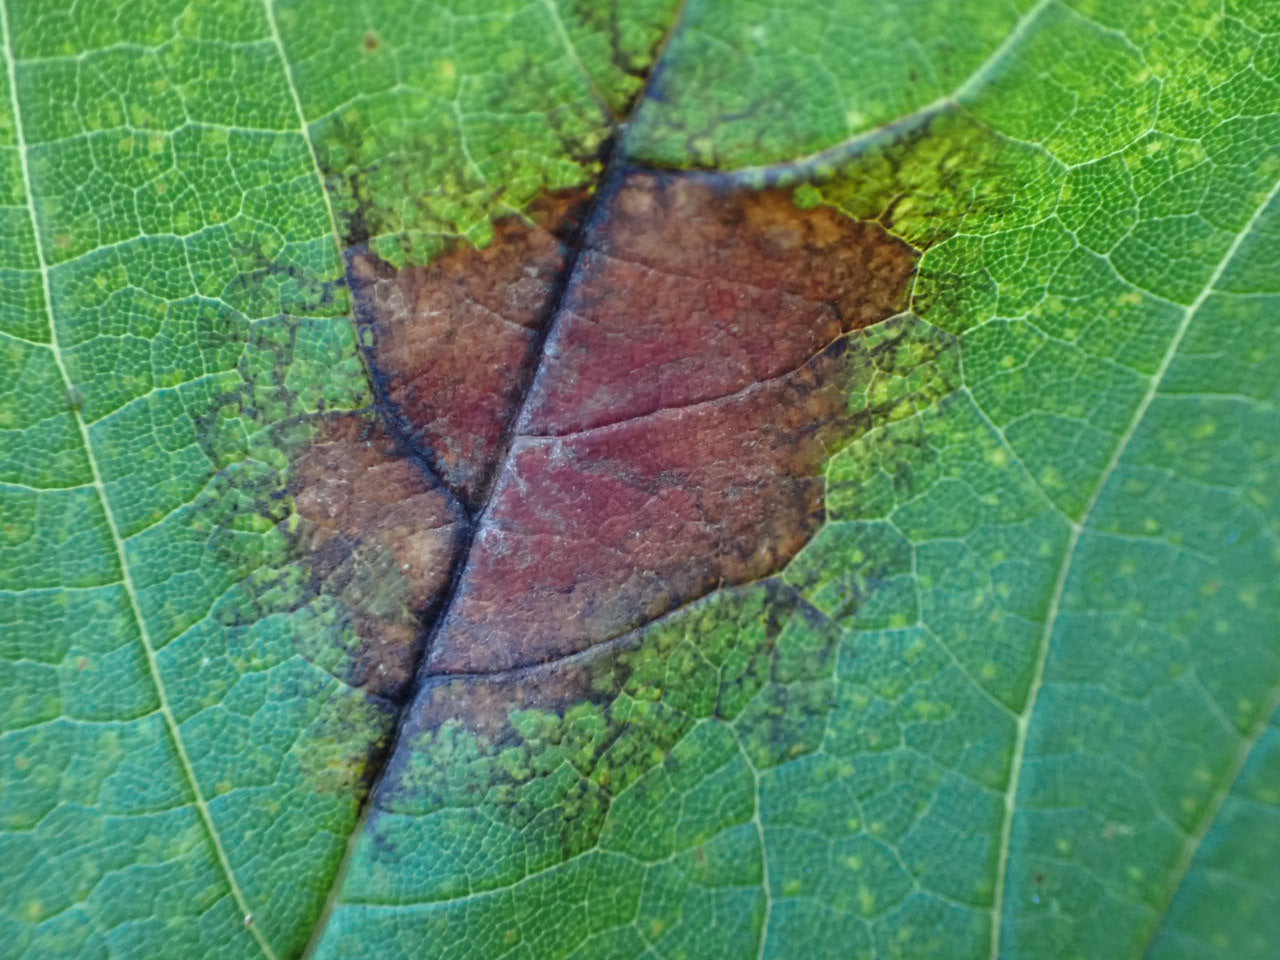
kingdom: Fungi
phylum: Ascomycota
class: Sordariomycetes
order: Diaporthales
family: Gnomoniaceae
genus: Pleuroceras
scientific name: Pleuroceras pseudoplatani
